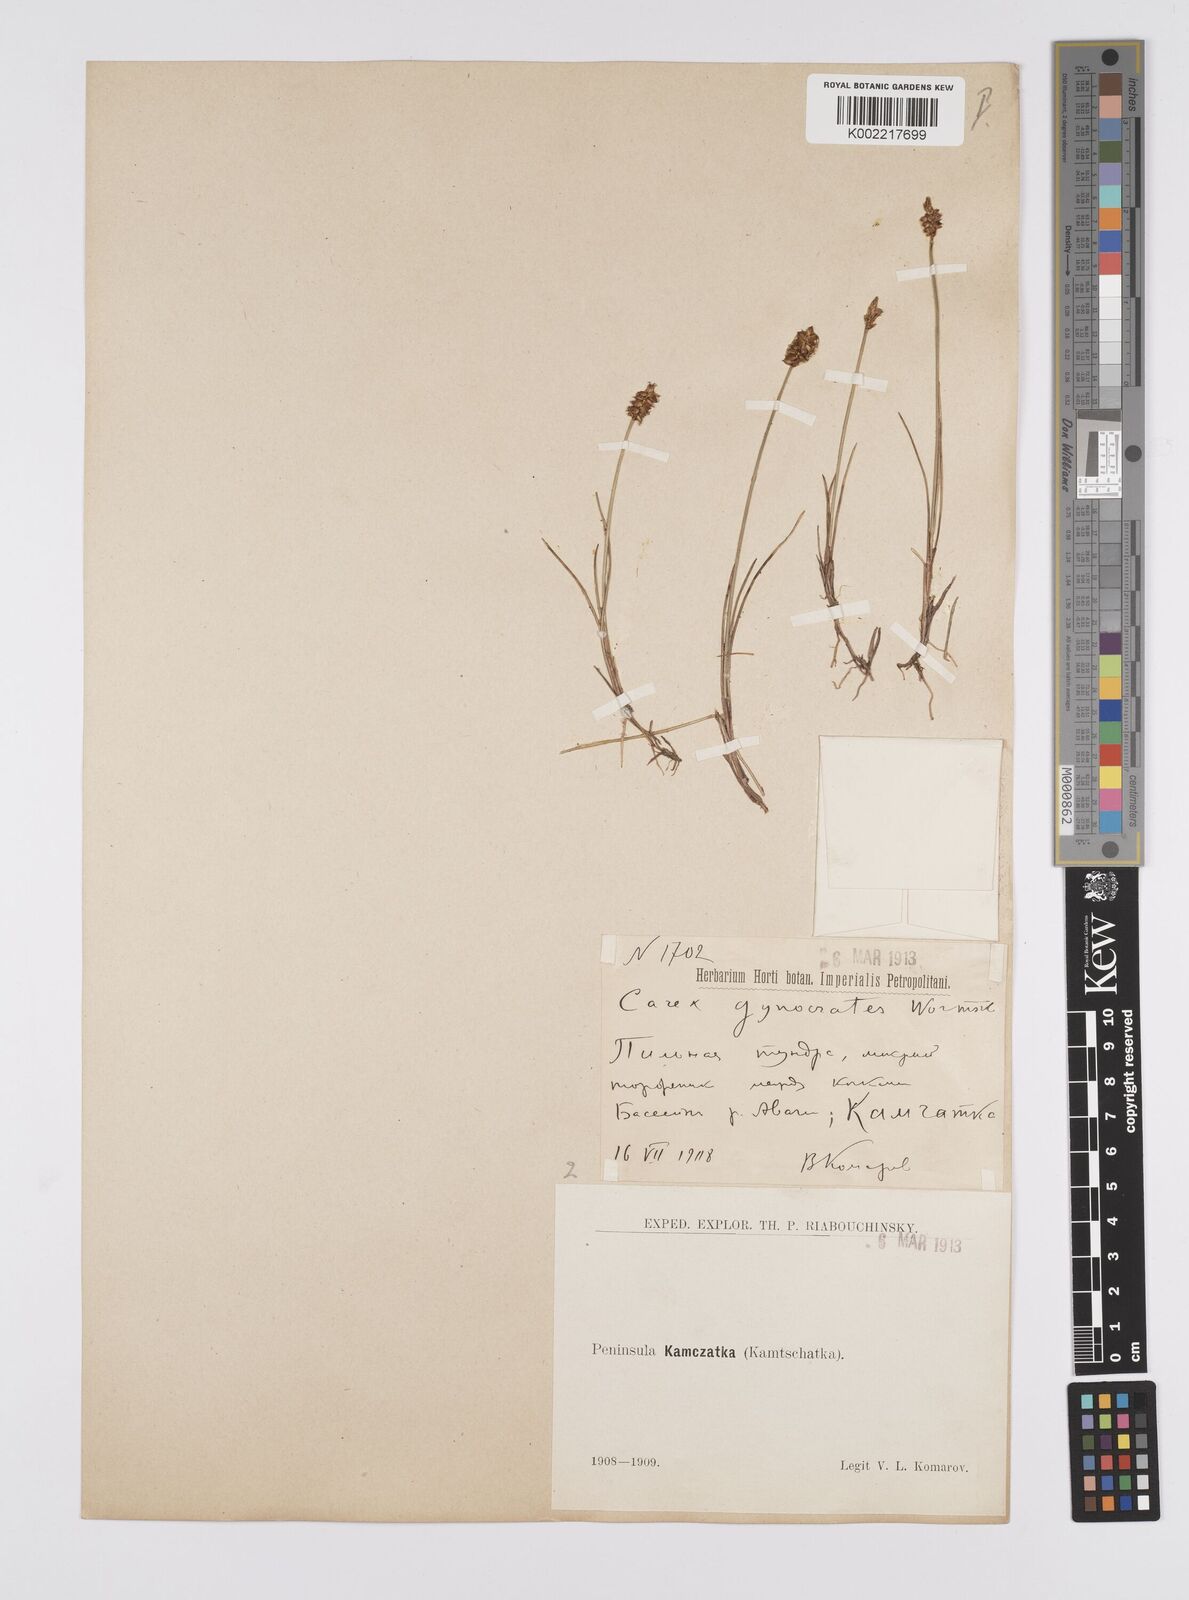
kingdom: Plantae
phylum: Tracheophyta
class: Liliopsida
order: Poales
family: Cyperaceae
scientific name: Cyperaceae
